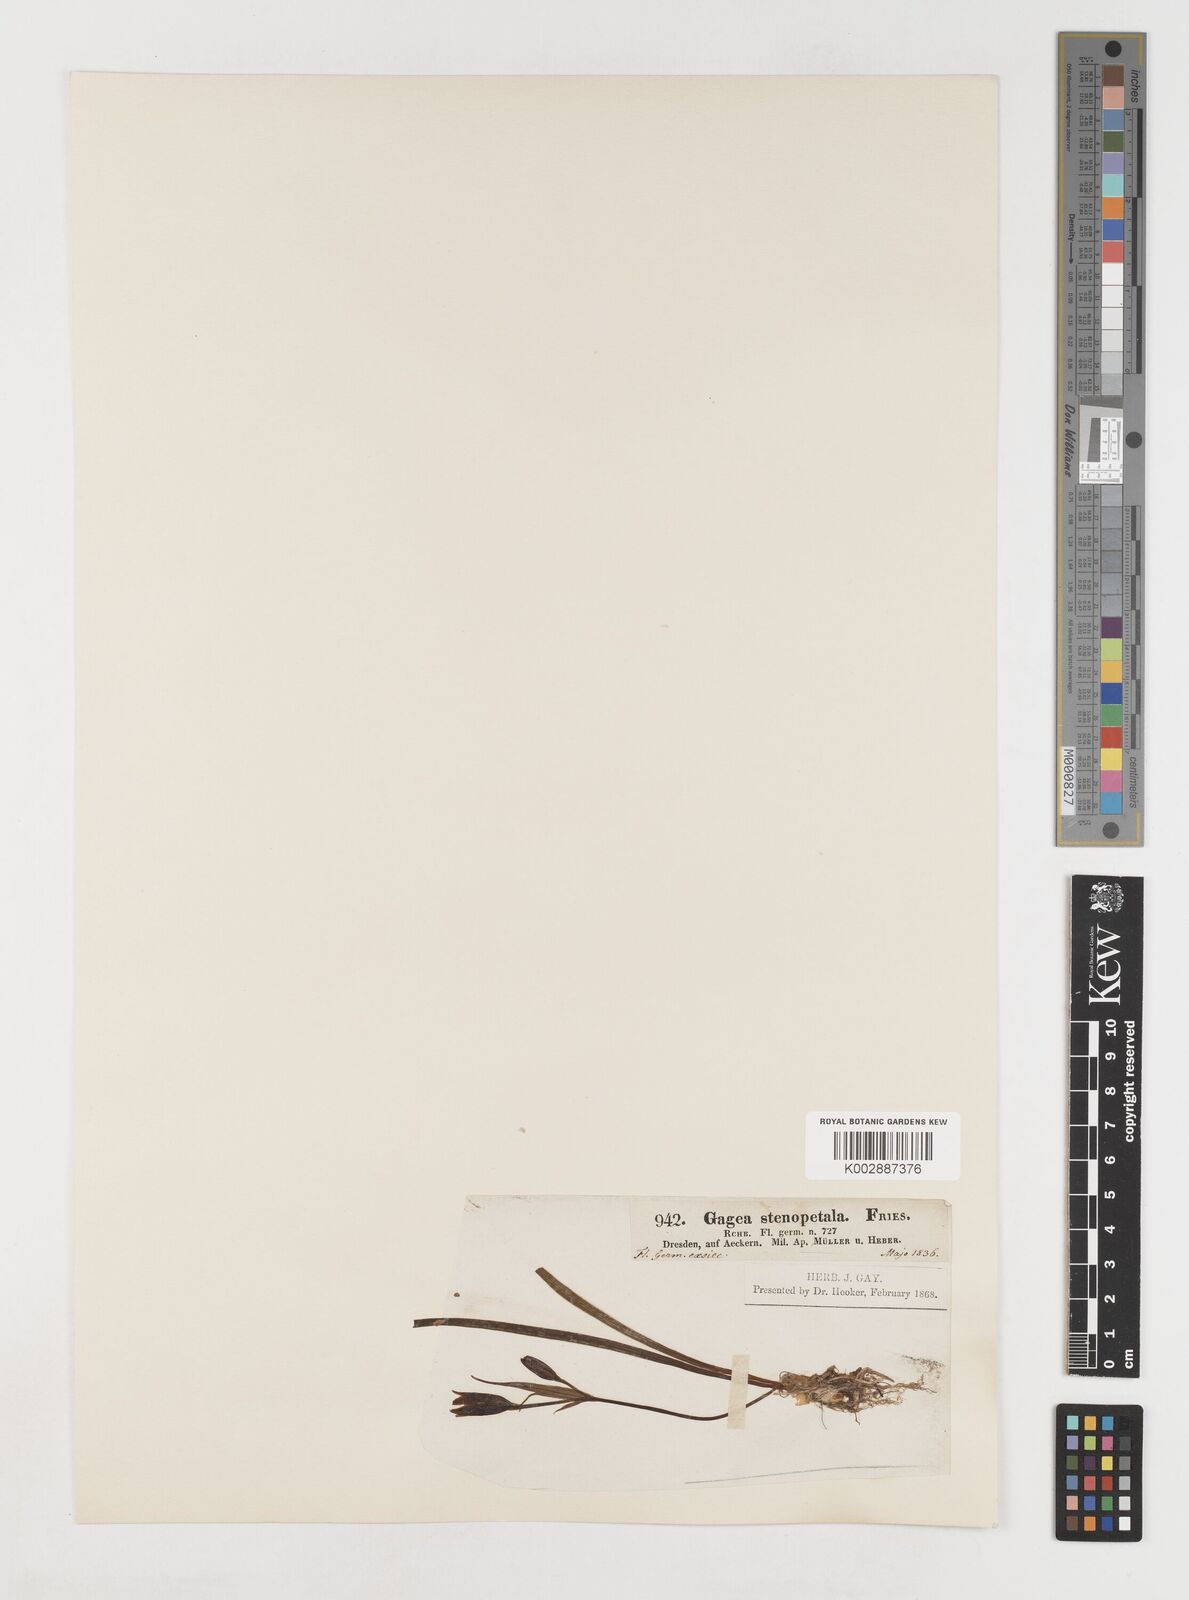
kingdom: Plantae
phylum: Tracheophyta
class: Liliopsida
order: Liliales
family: Liliaceae
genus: Gagea
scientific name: Gagea pratensis
